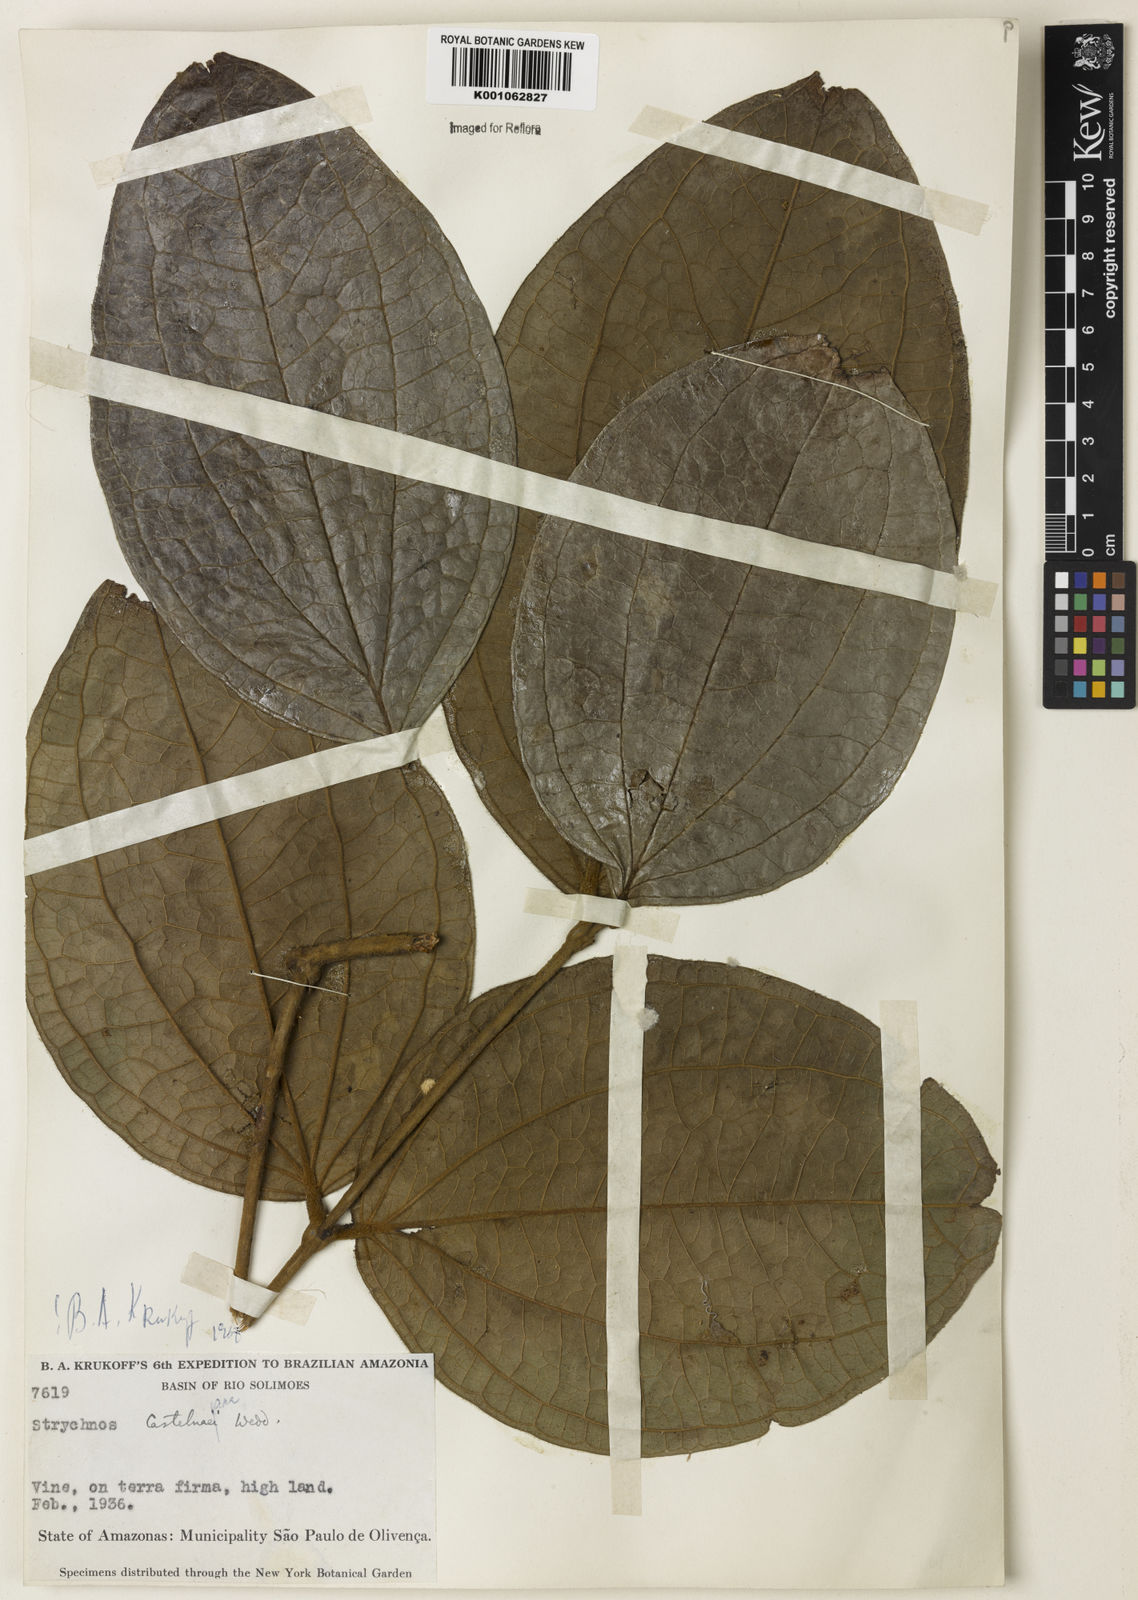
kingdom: Plantae
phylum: Tracheophyta
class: Magnoliopsida
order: Gentianales
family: Loganiaceae
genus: Strychnos
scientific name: Strychnos
